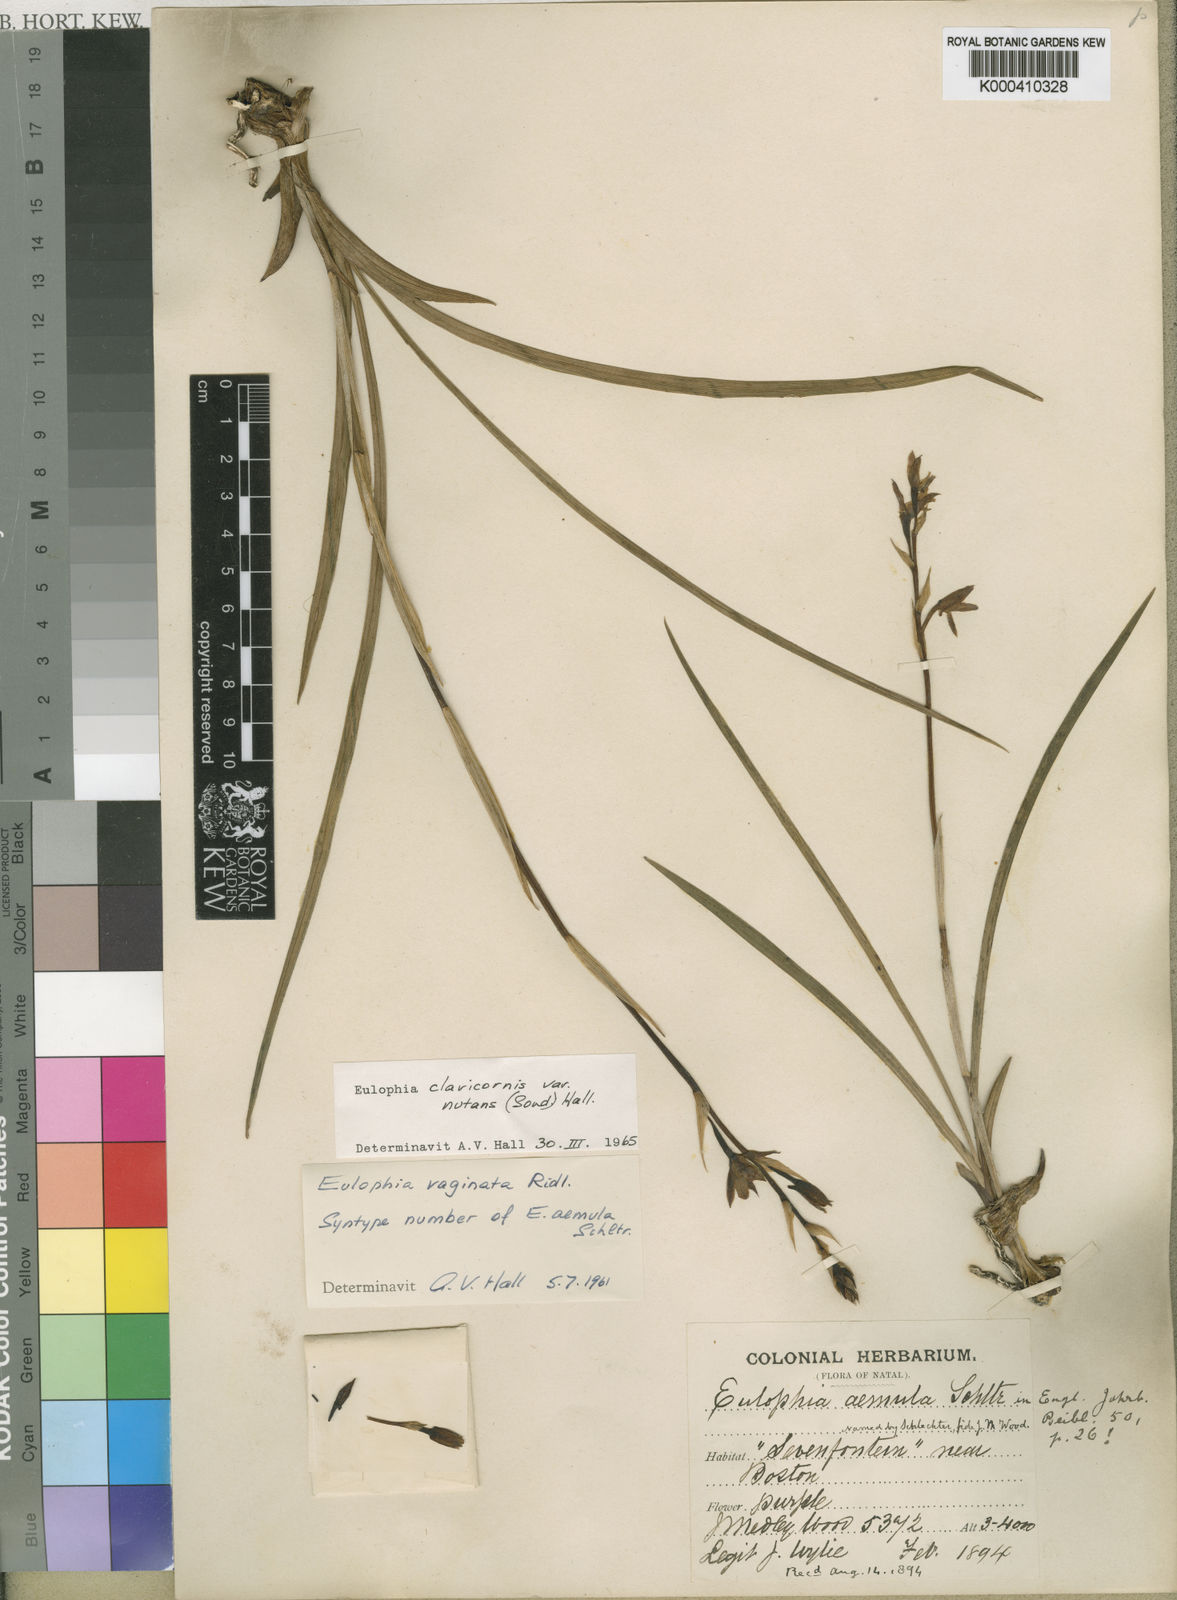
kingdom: Plantae
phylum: Tracheophyta
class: Liliopsida
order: Asparagales
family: Orchidaceae
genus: Eulophia
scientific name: Eulophia hians
